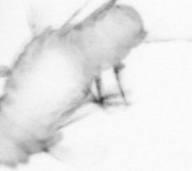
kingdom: Animalia
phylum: Annelida
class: Polychaeta
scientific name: Polychaeta
